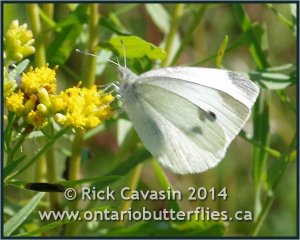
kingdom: Animalia
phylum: Arthropoda
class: Insecta
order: Lepidoptera
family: Pieridae
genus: Pieris
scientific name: Pieris rapae
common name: Cabbage White
